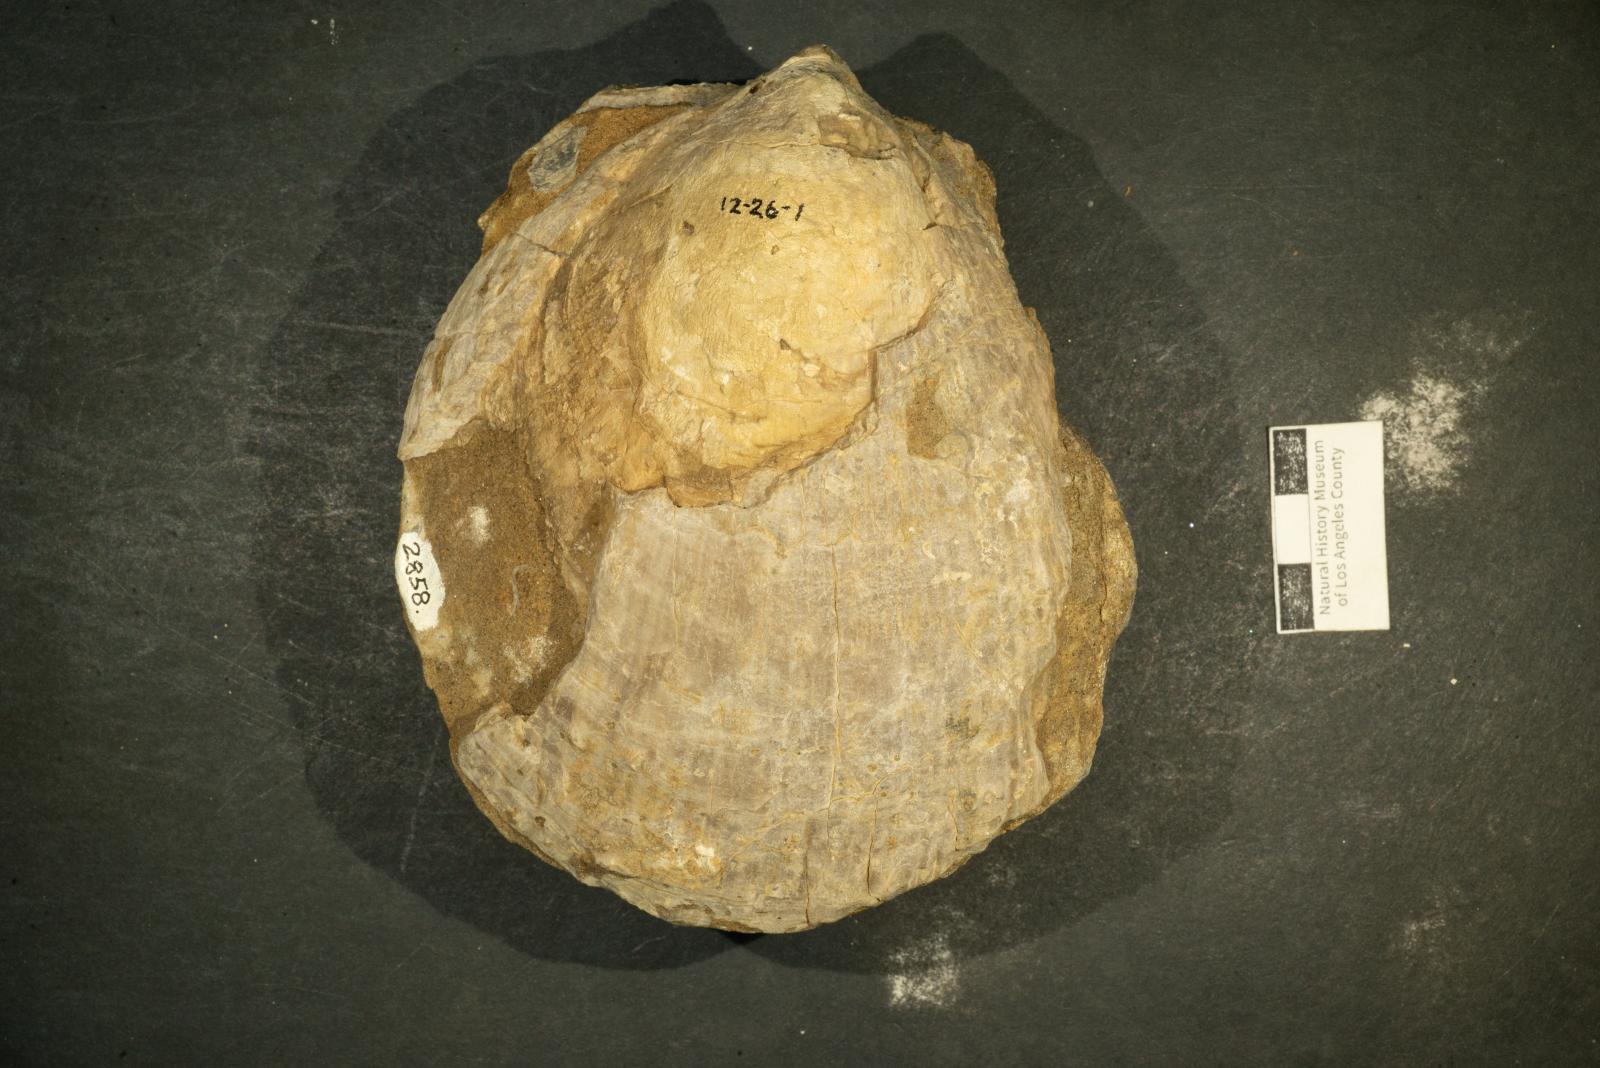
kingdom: Animalia
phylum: Mollusca
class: Bivalvia
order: Pectinida
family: Spondylidae
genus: Spondylus
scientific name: Spondylus
